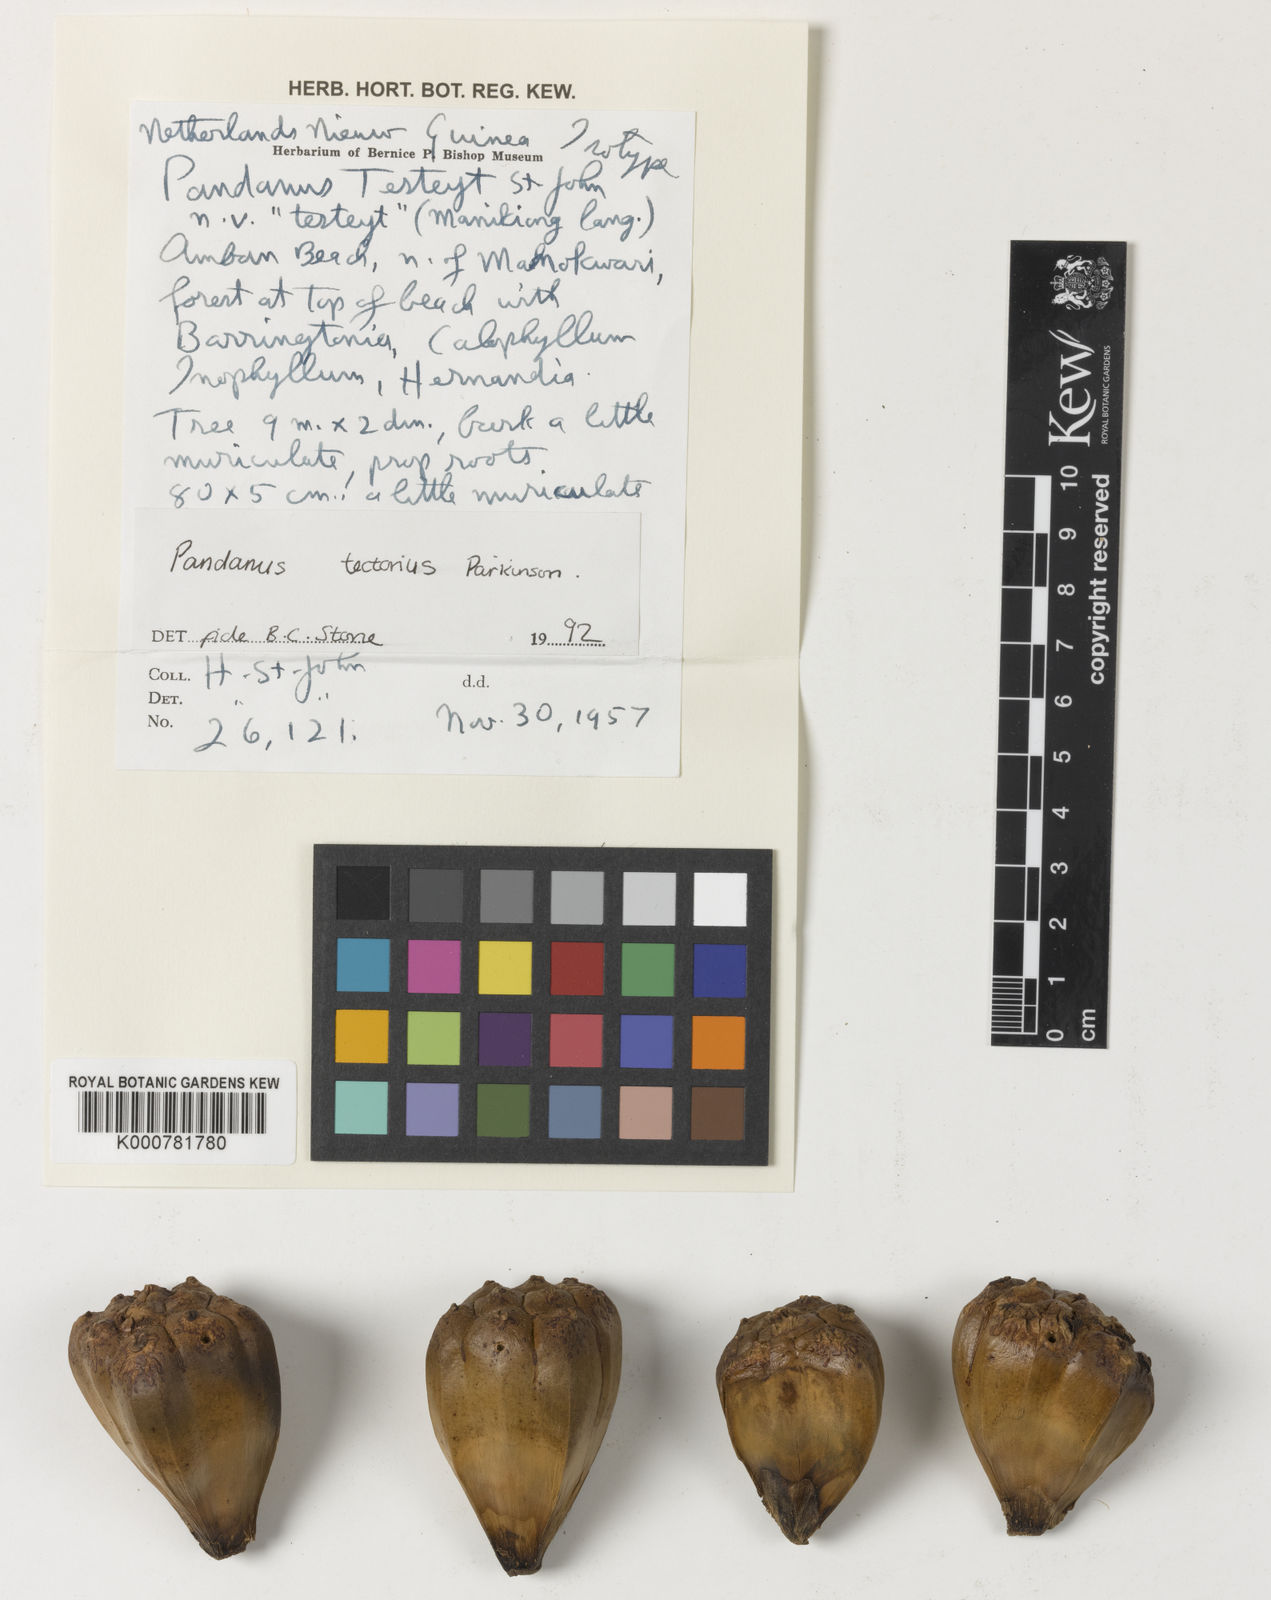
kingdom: Plantae
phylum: Tracheophyta
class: Liliopsida
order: Pandanales
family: Pandanaceae
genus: Pandanus
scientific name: Pandanus
